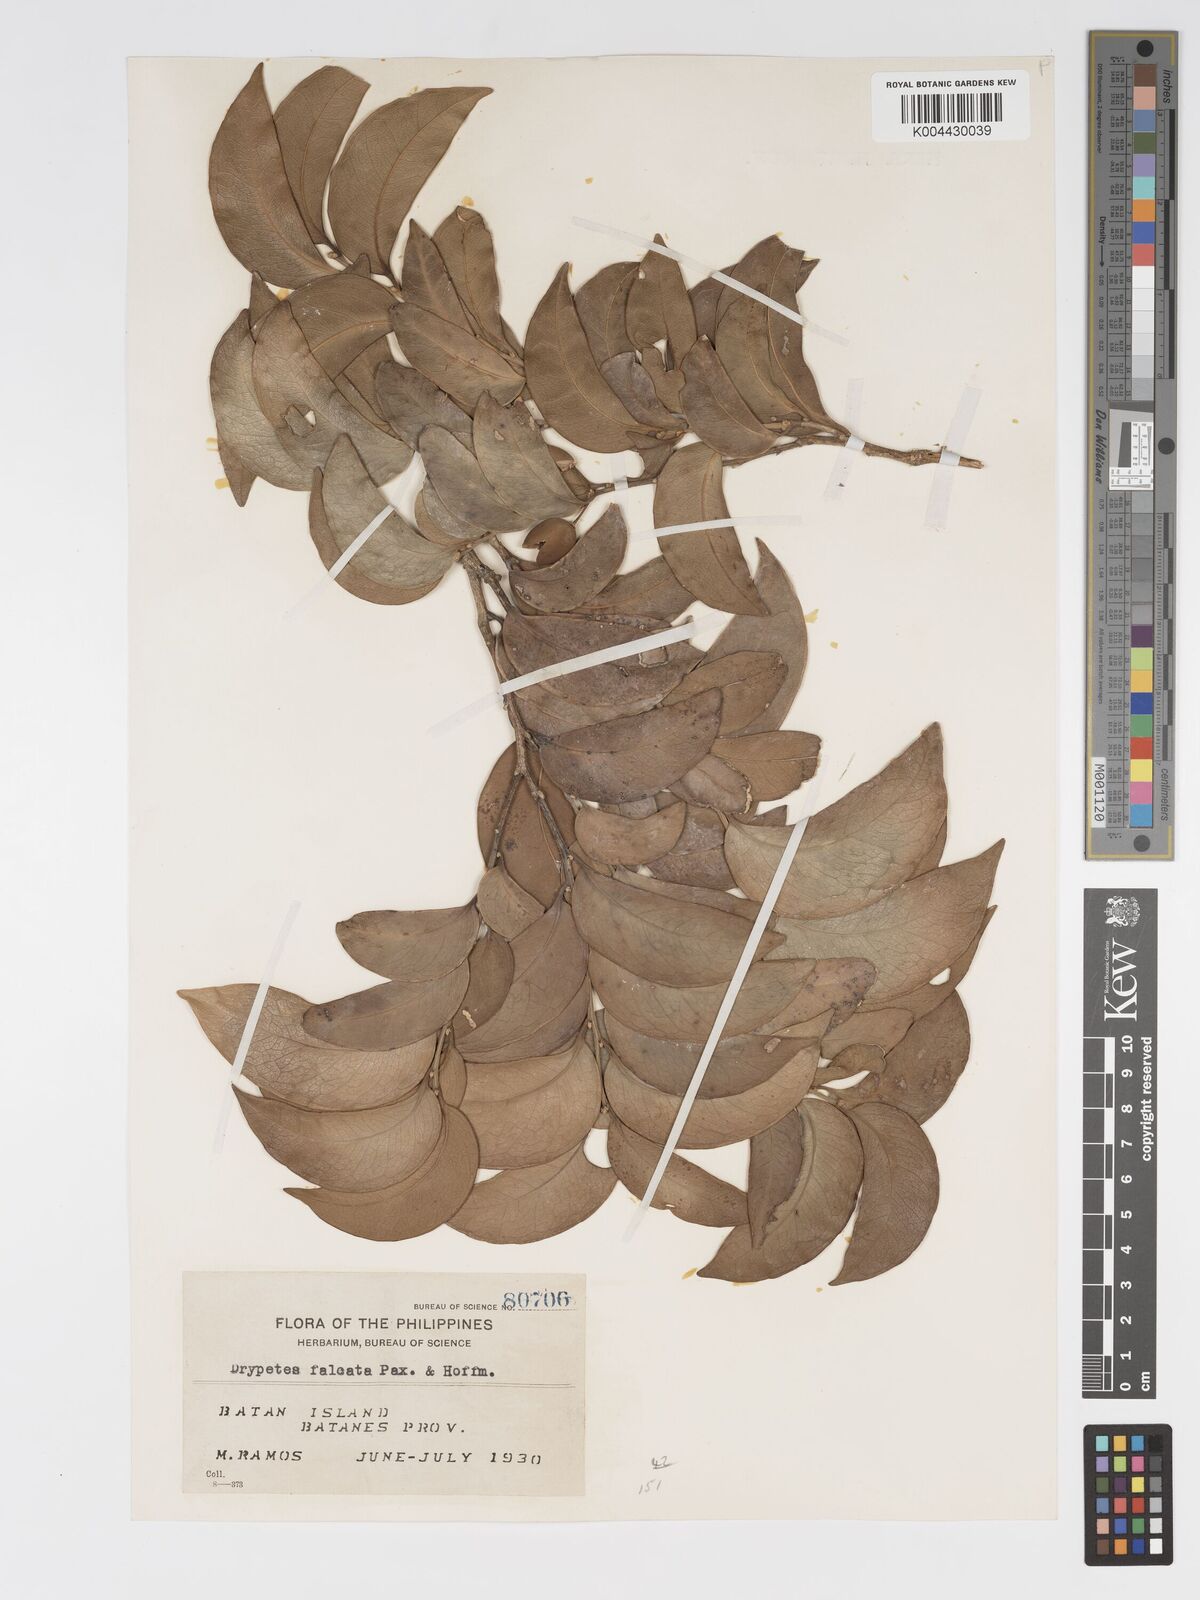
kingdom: Plantae
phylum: Tracheophyta
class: Magnoliopsida
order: Malpighiales
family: Putranjivaceae
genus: Drypetes
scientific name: Drypetes falcata
